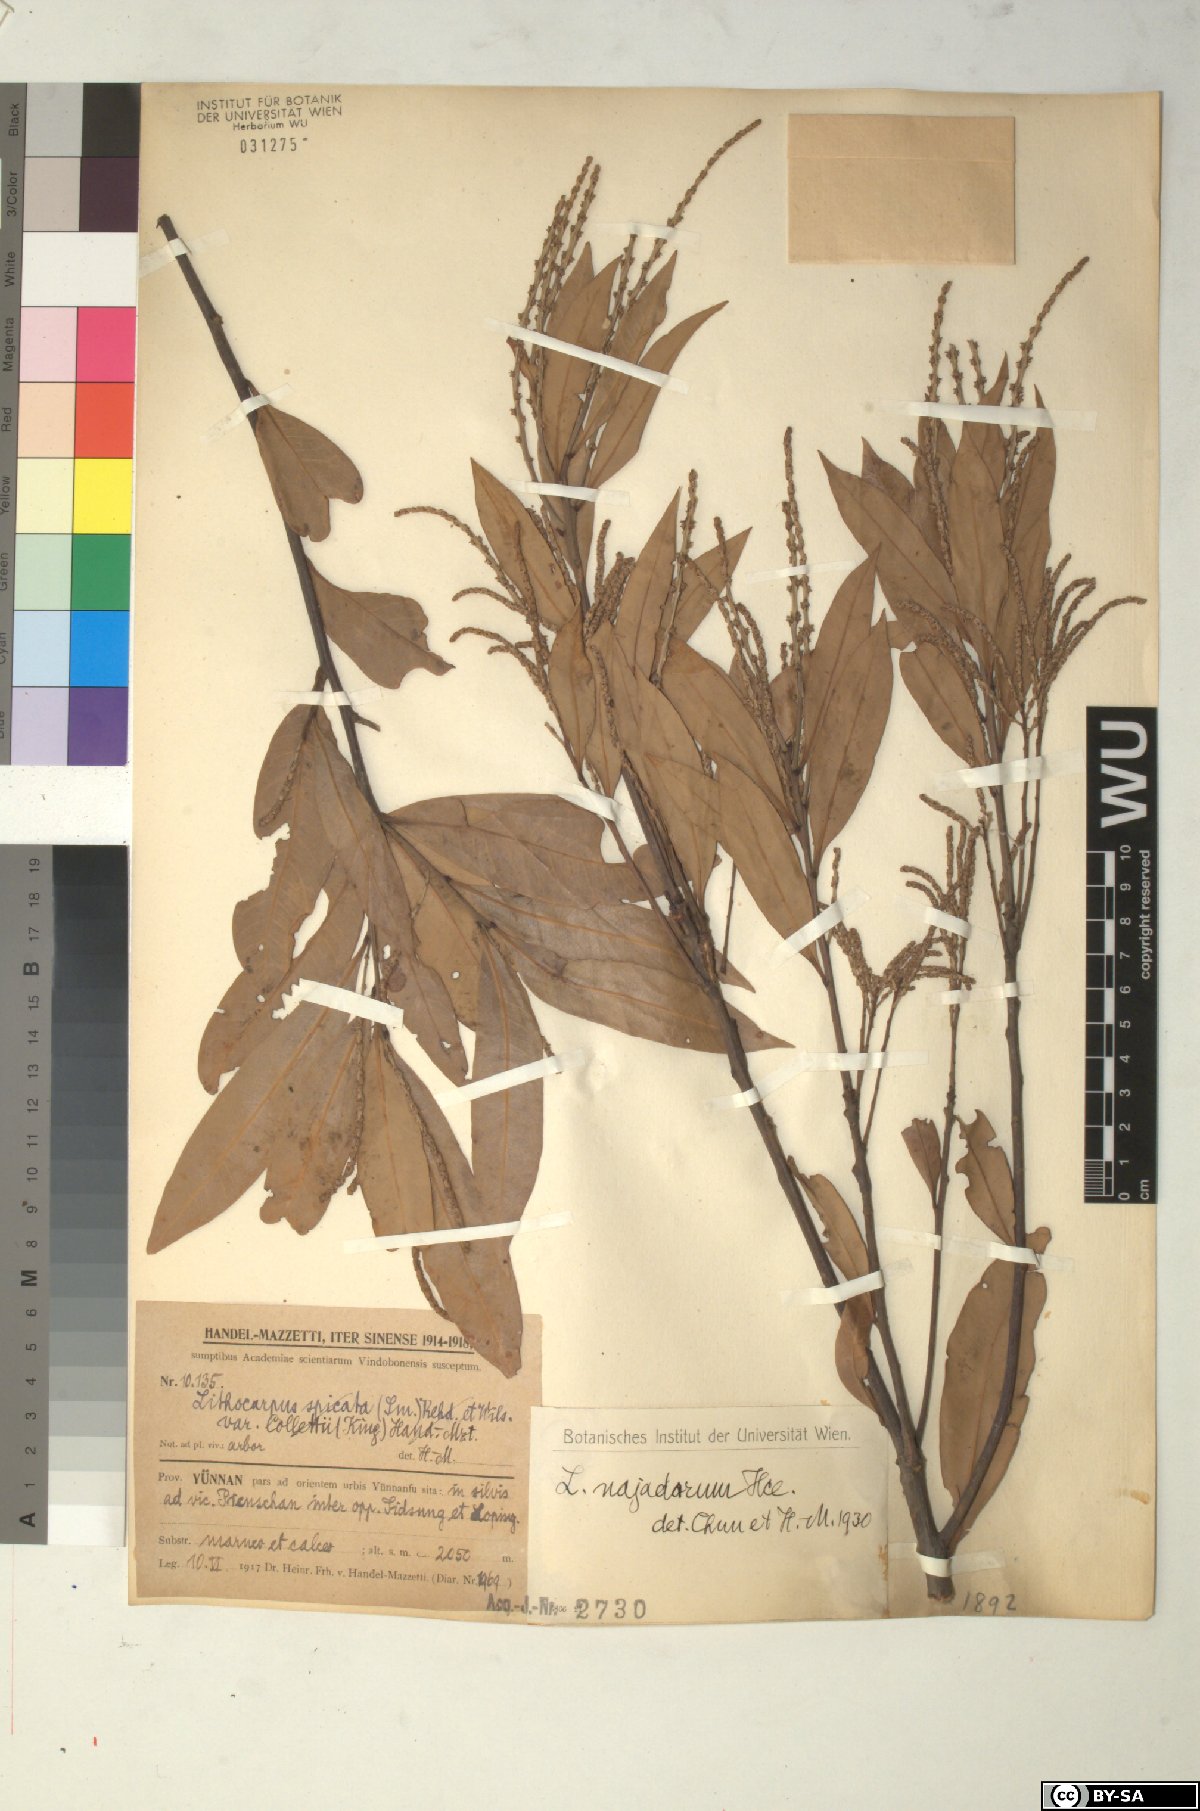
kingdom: Plantae
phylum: Tracheophyta
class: Magnoliopsida
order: Fagales
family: Fagaceae
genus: Lithocarpus
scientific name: Lithocarpus naiadarum
